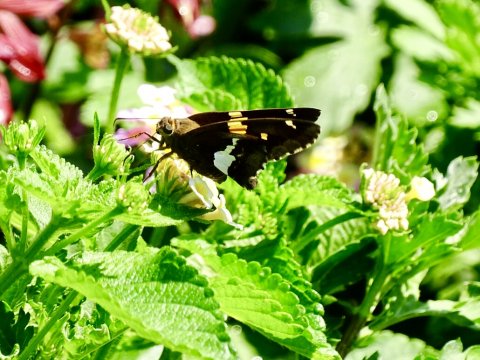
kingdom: Animalia
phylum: Arthropoda
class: Insecta
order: Lepidoptera
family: Hesperiidae
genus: Epargyreus
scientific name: Epargyreus clarus
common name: Silver-spotted Skipper
